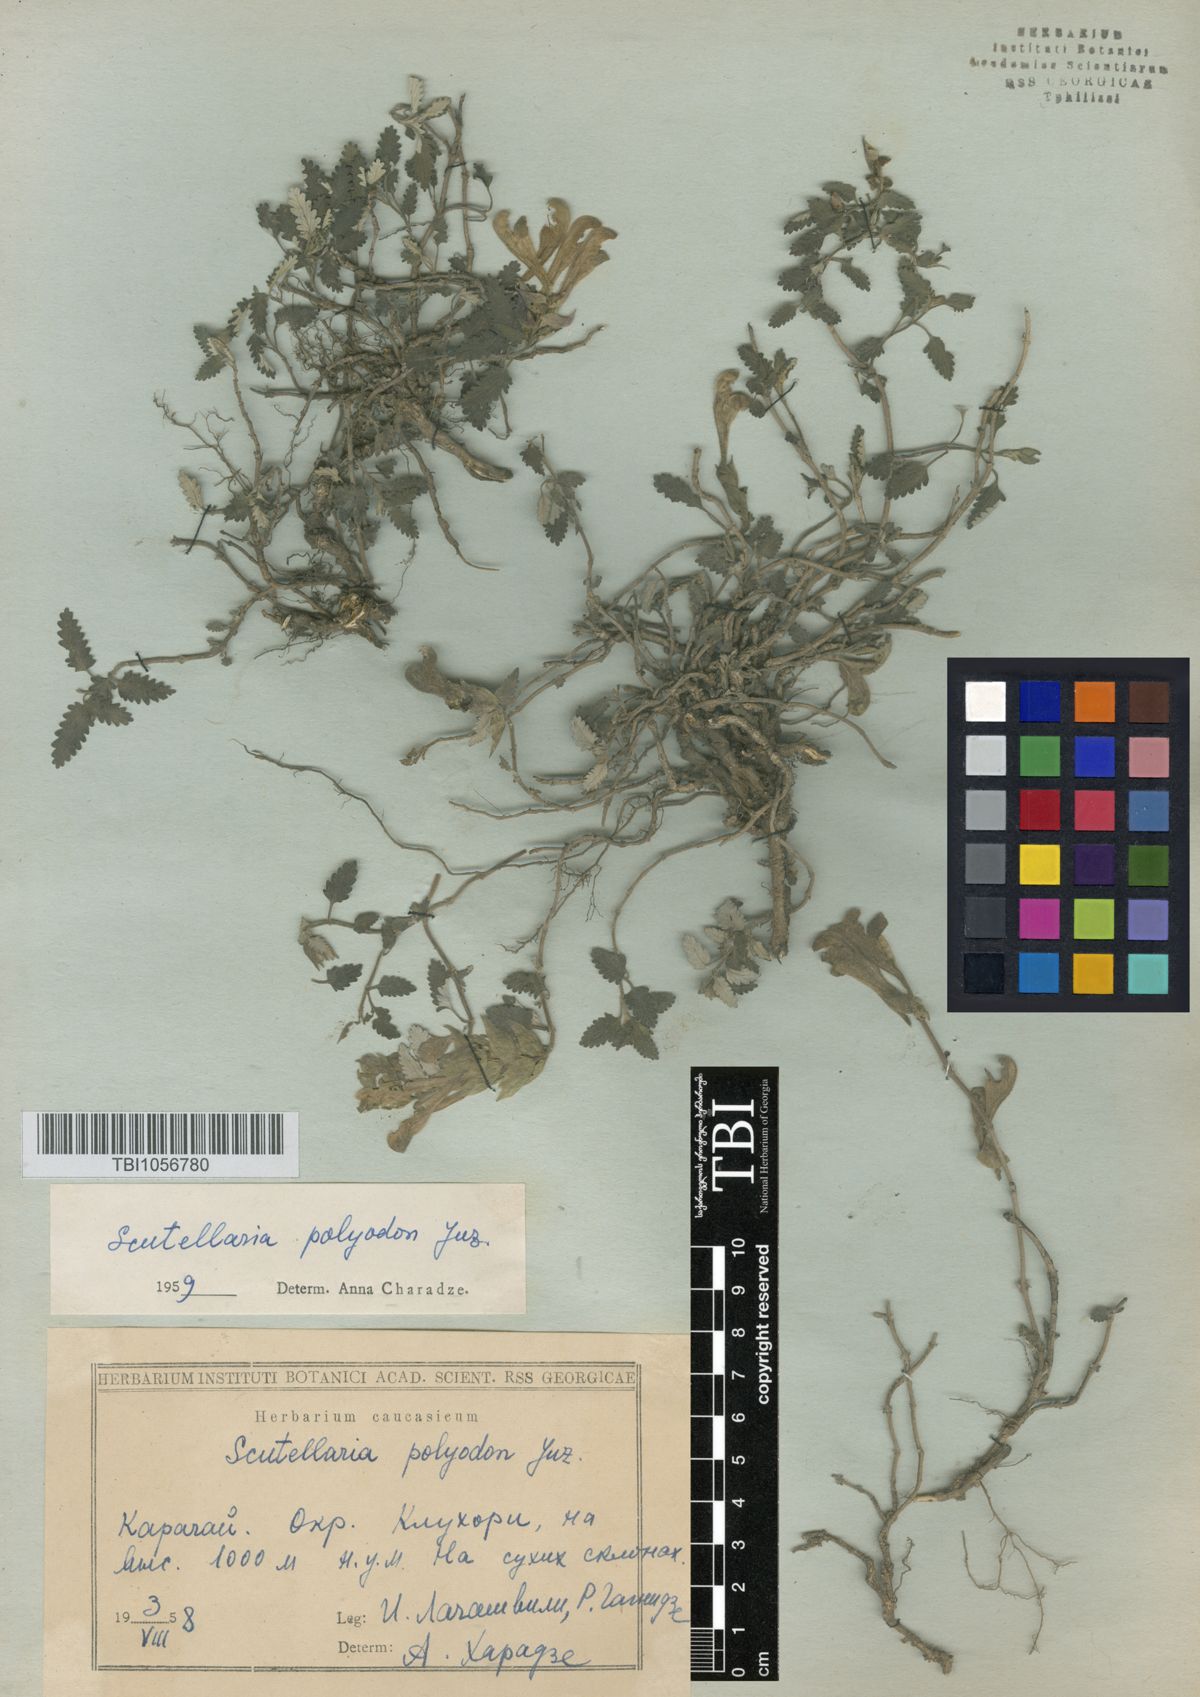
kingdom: Plantae
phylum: Tracheophyta
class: Magnoliopsida
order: Lamiales
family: Lamiaceae
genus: Scutellaria
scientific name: Scutellaria caucasica
